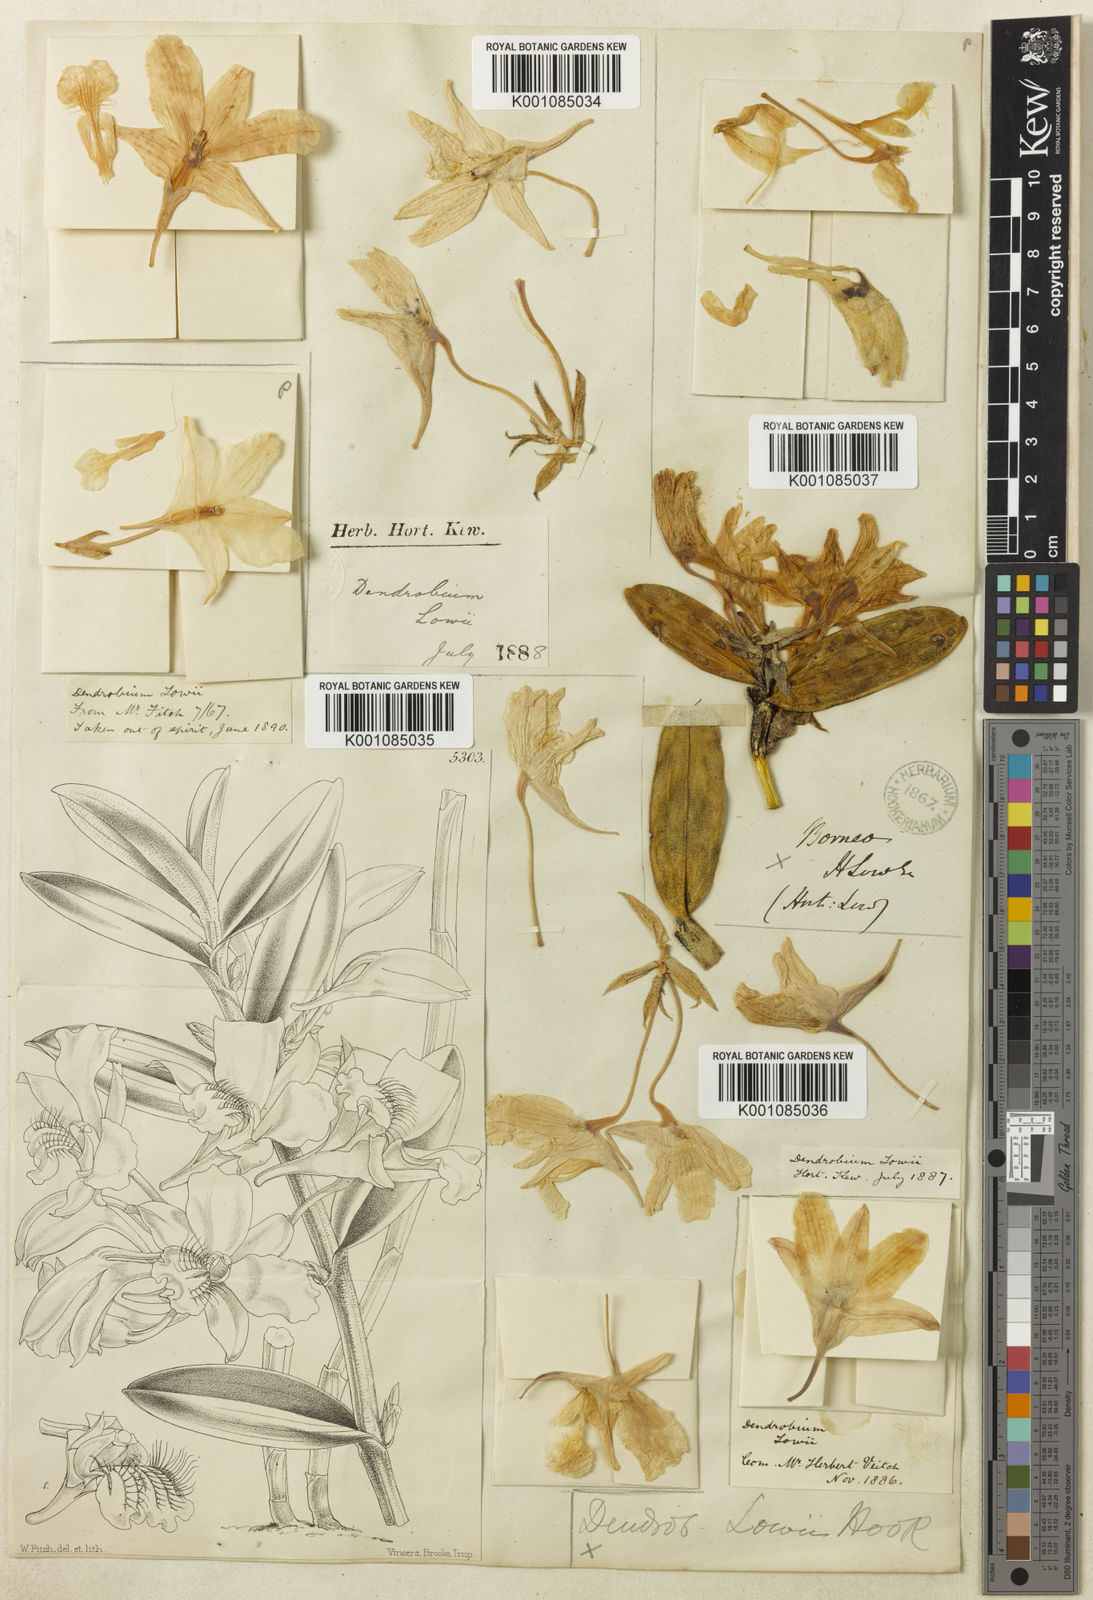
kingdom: Plantae
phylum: Tracheophyta
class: Liliopsida
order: Asparagales
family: Orchidaceae
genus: Dendrobium
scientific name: Dendrobium lowii
